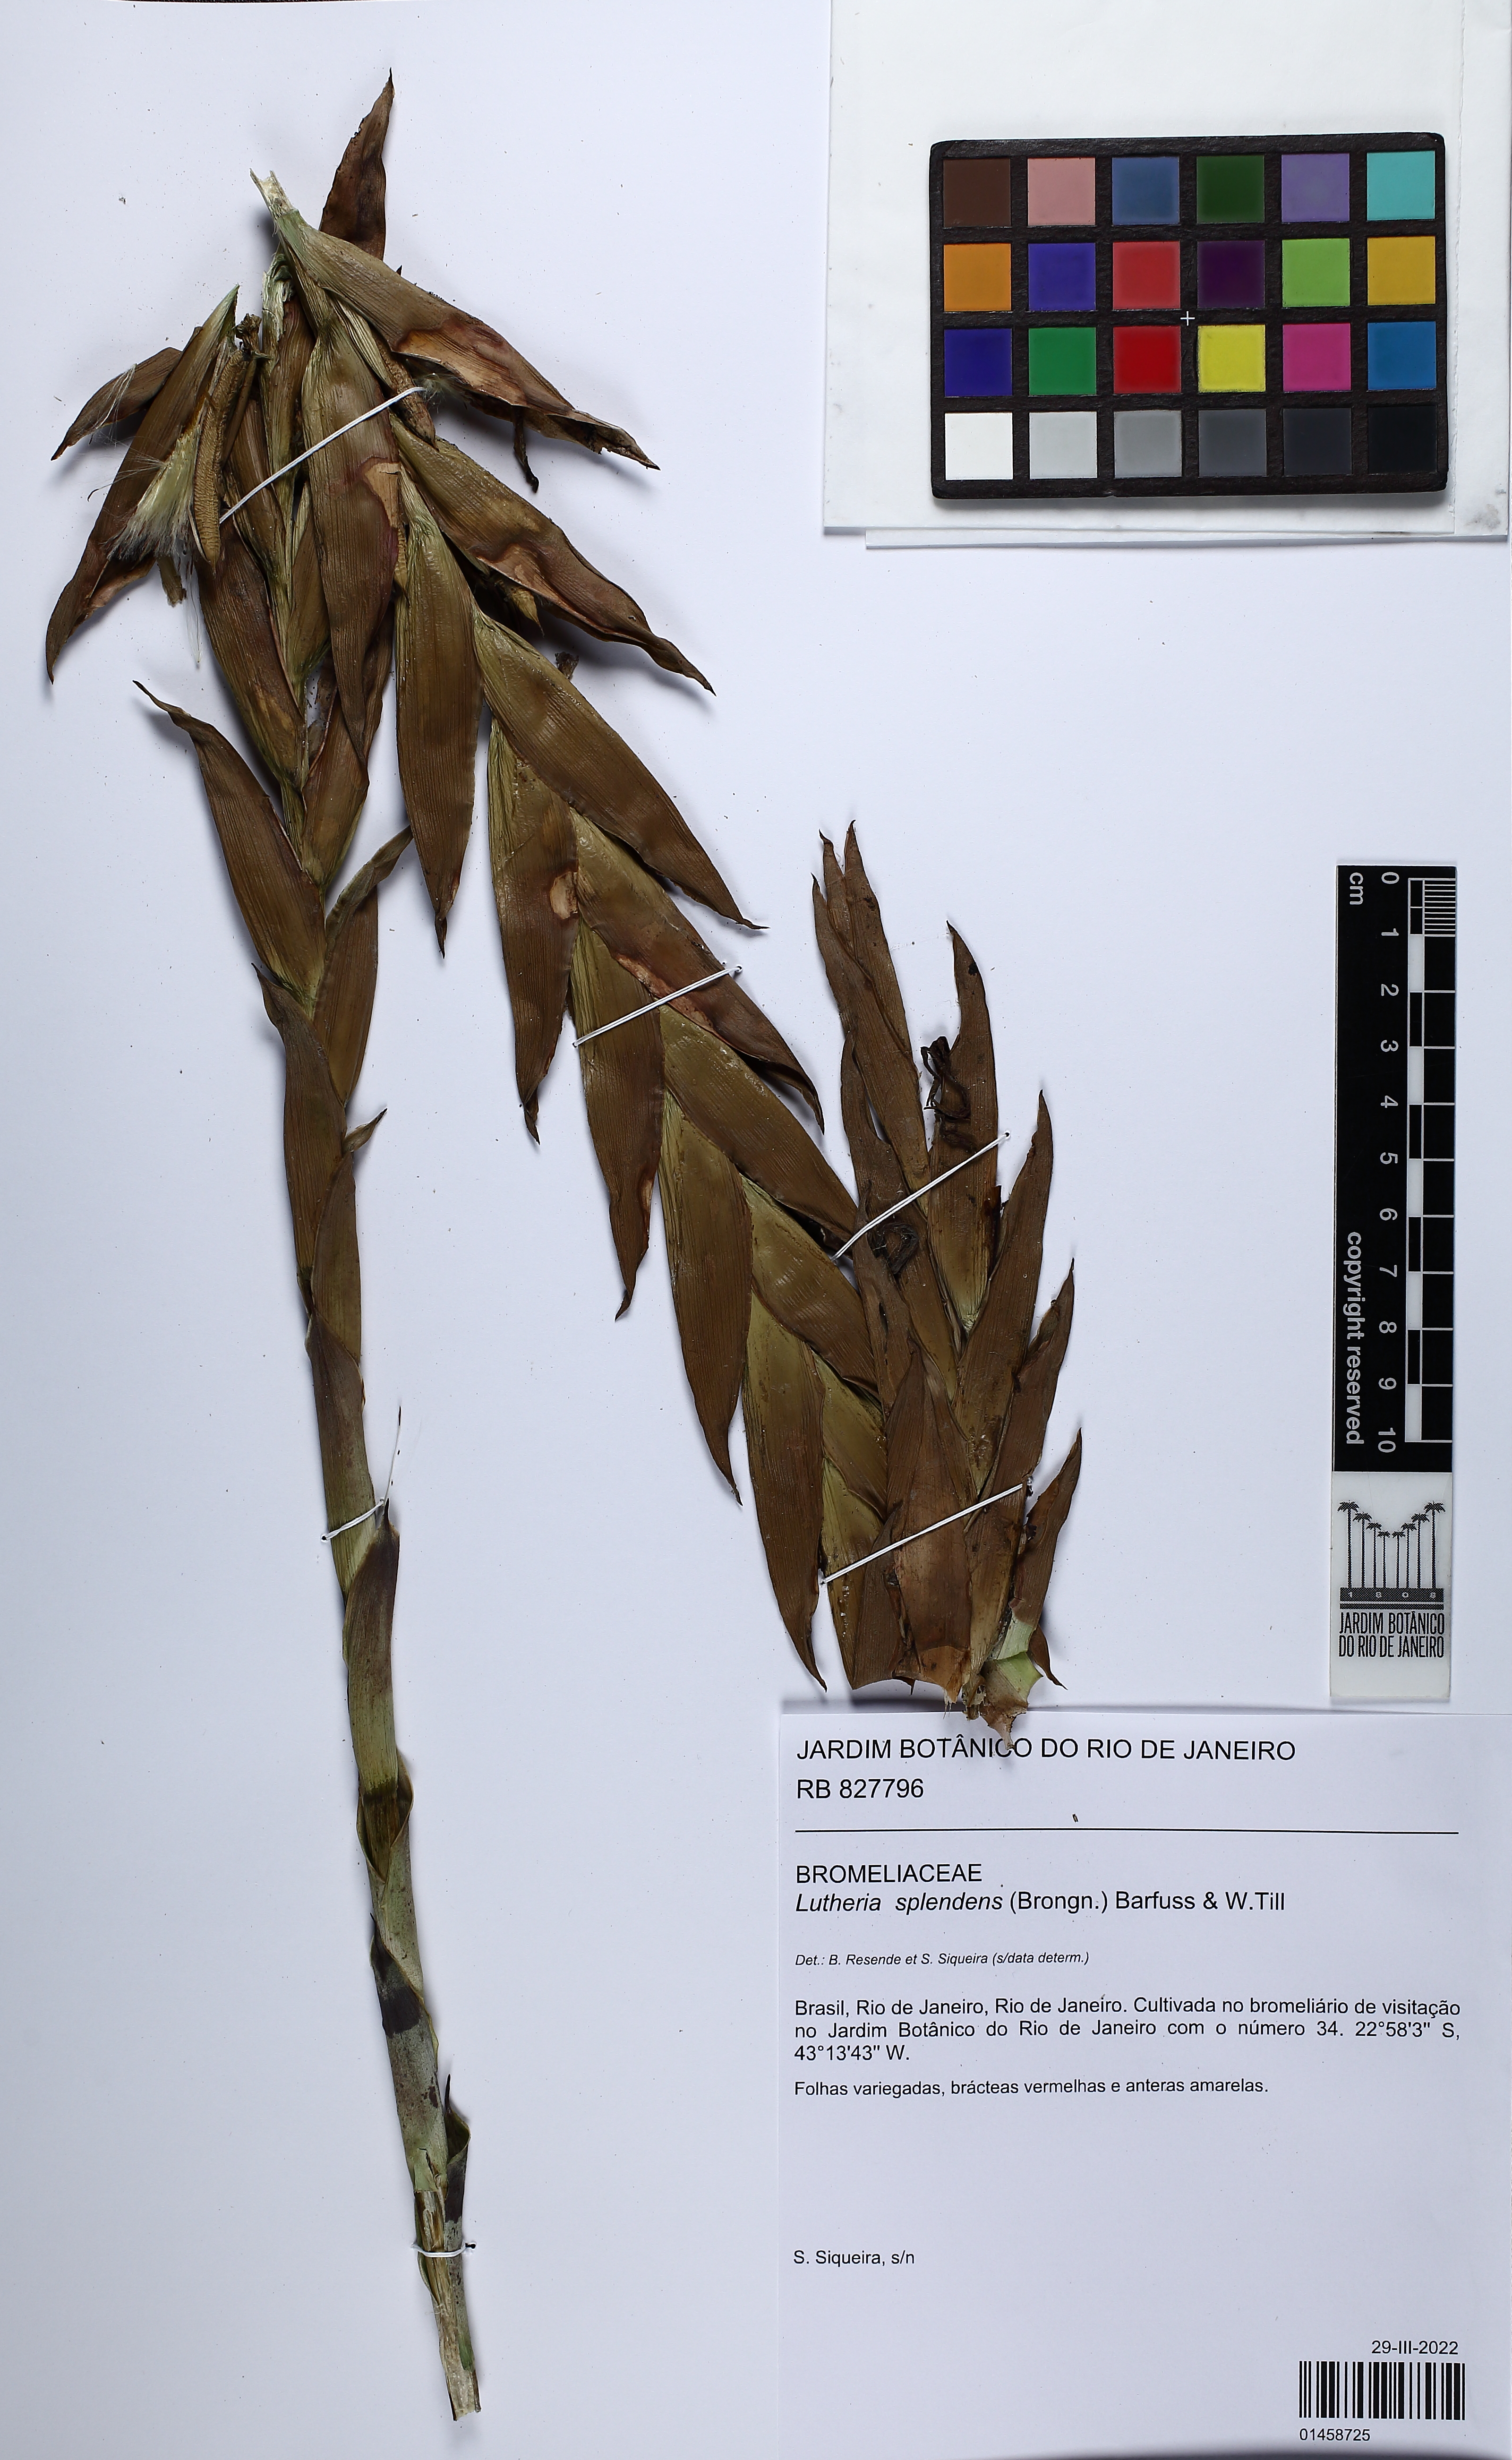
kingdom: Plantae
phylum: Tracheophyta
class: Liliopsida
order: Poales
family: Bromeliaceae
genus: Lutheria
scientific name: Lutheria splendens
